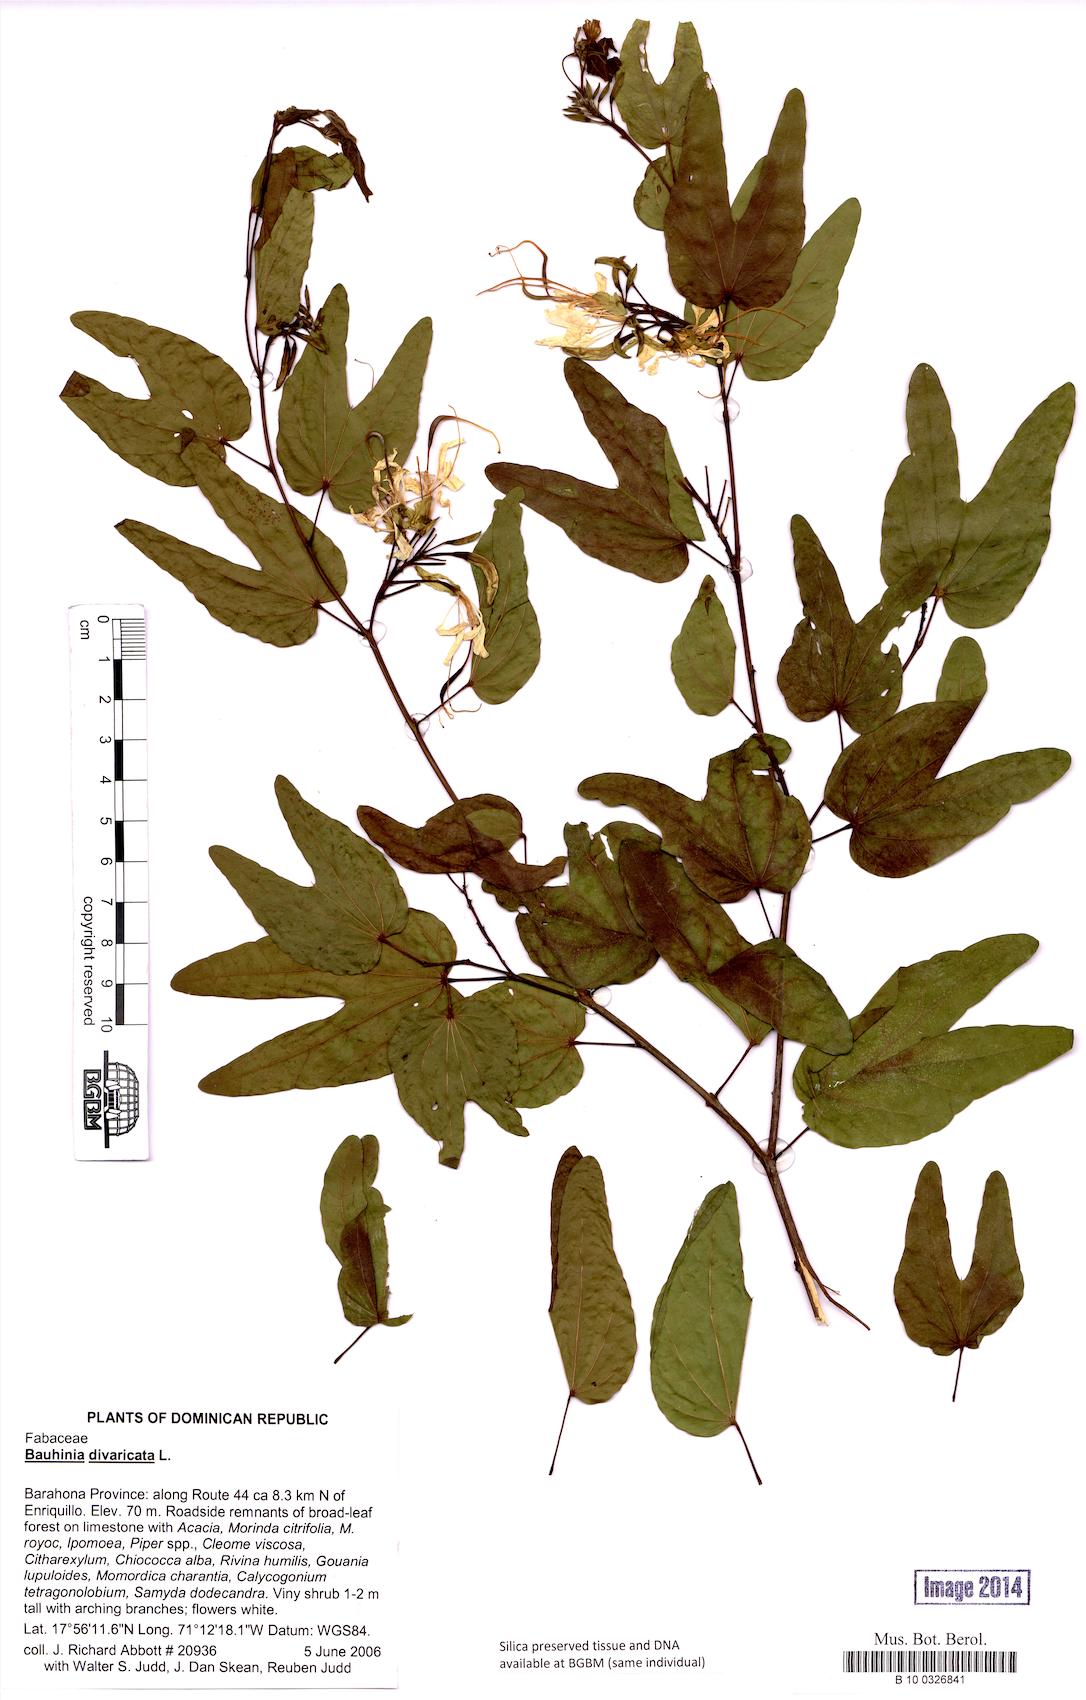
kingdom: Plantae
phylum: Tracheophyta
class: Magnoliopsida
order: Fabales
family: Fabaceae
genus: Bauhinia
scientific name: Bauhinia divaricata
